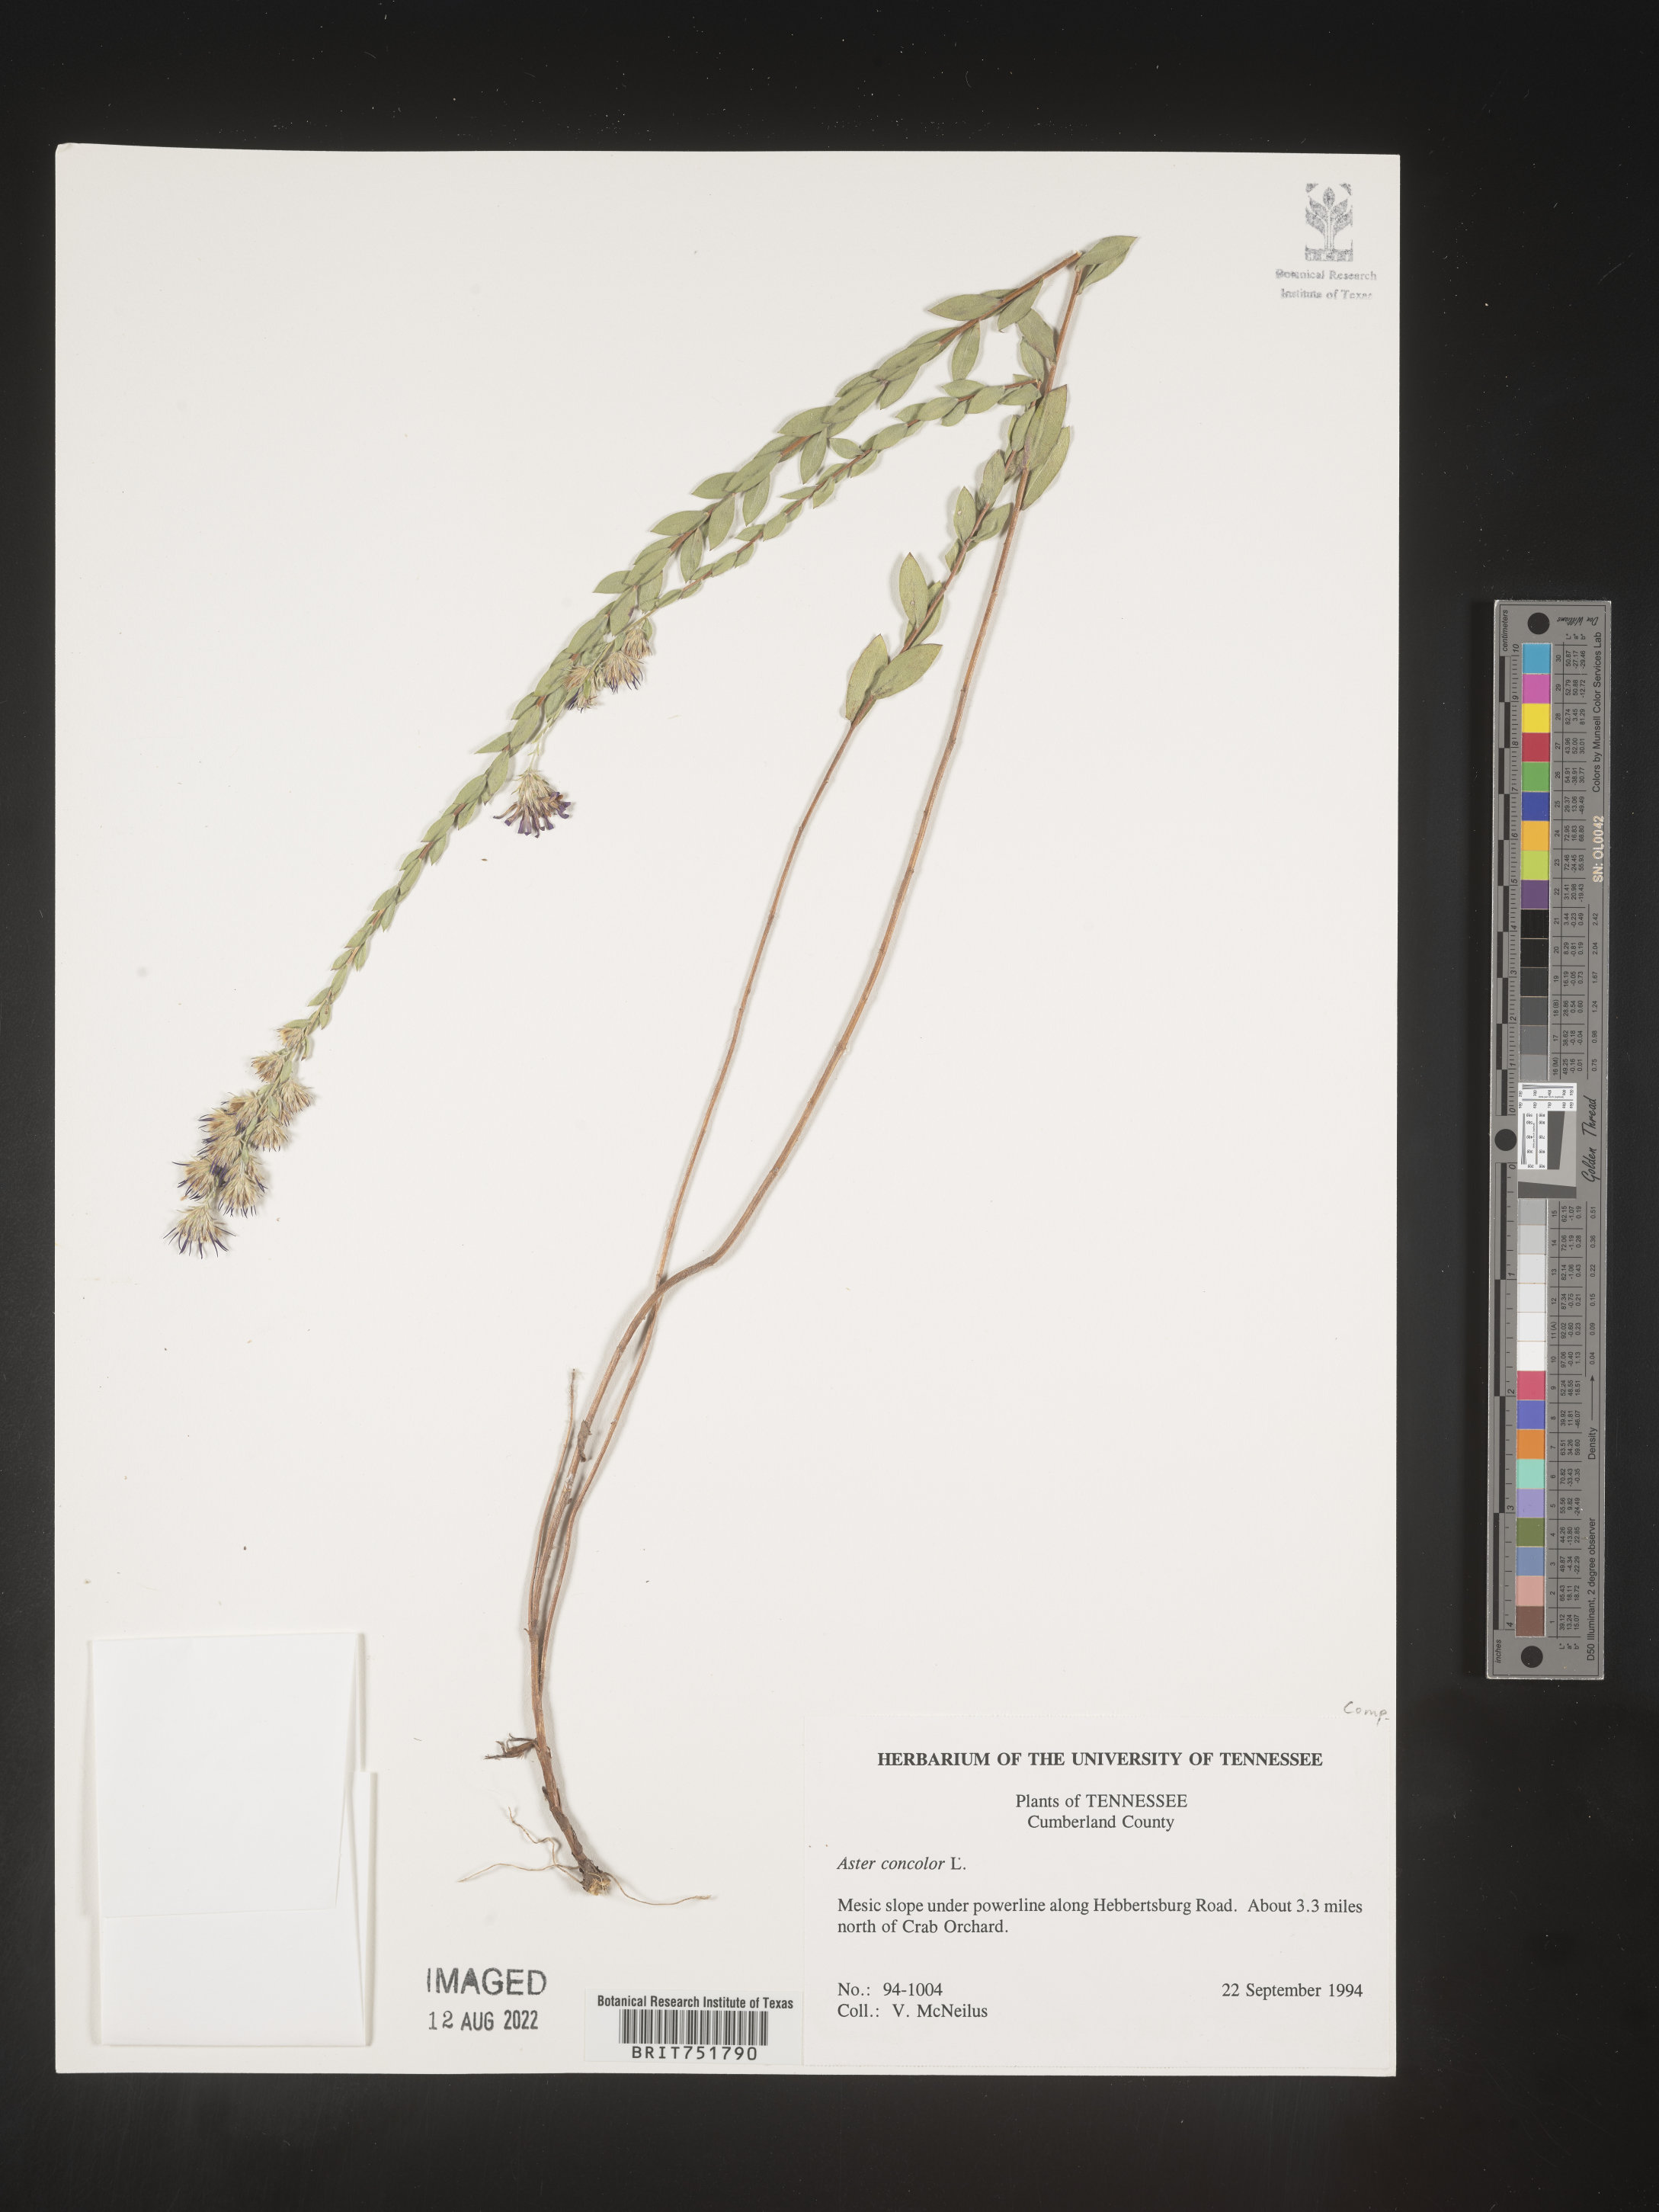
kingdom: Plantae
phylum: Tracheophyta
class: Magnoliopsida
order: Asterales
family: Asteraceae
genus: Symphyotrichum
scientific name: Symphyotrichum concolor
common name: Eastern silver aster
